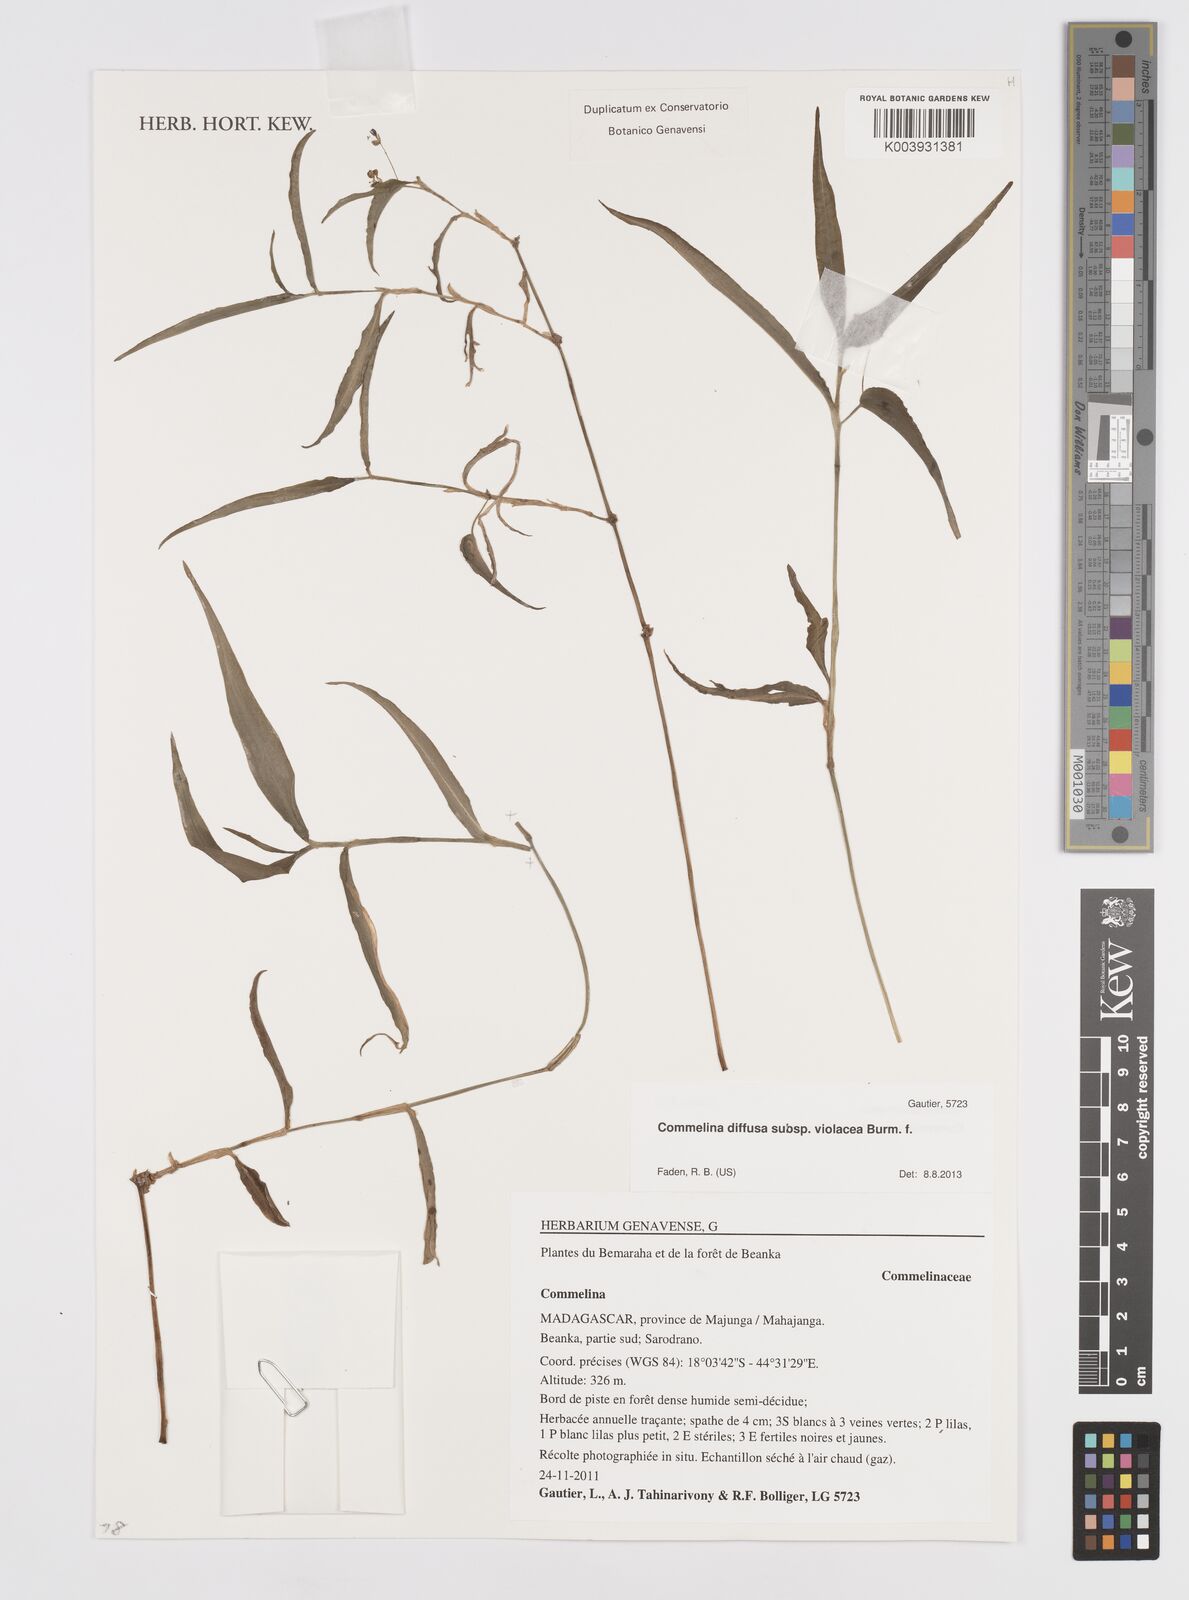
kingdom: Plantae
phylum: Tracheophyta
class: Liliopsida
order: Commelinales
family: Commelinaceae
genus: Commelina
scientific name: Commelina diffusa
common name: Climbing dayflower
